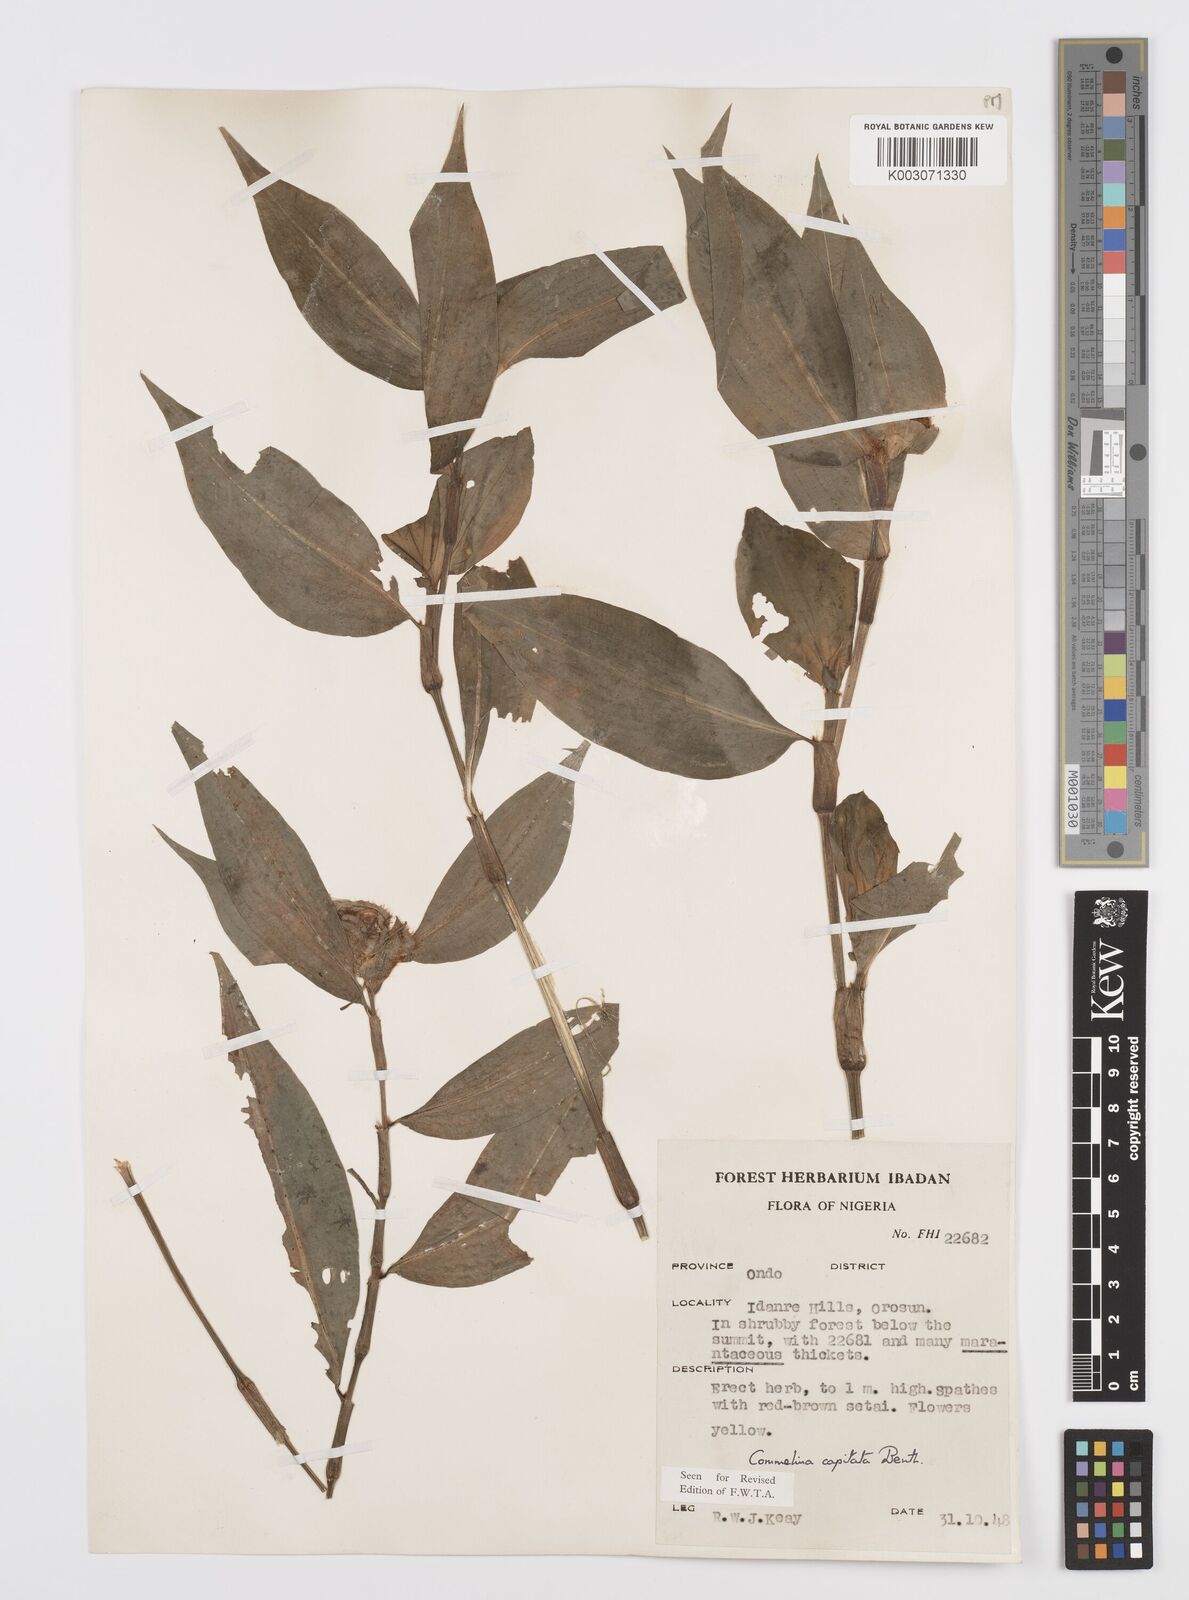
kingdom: Plantae
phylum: Tracheophyta
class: Liliopsida
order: Commelinales
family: Commelinaceae
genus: Commelina
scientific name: Commelina capitata
